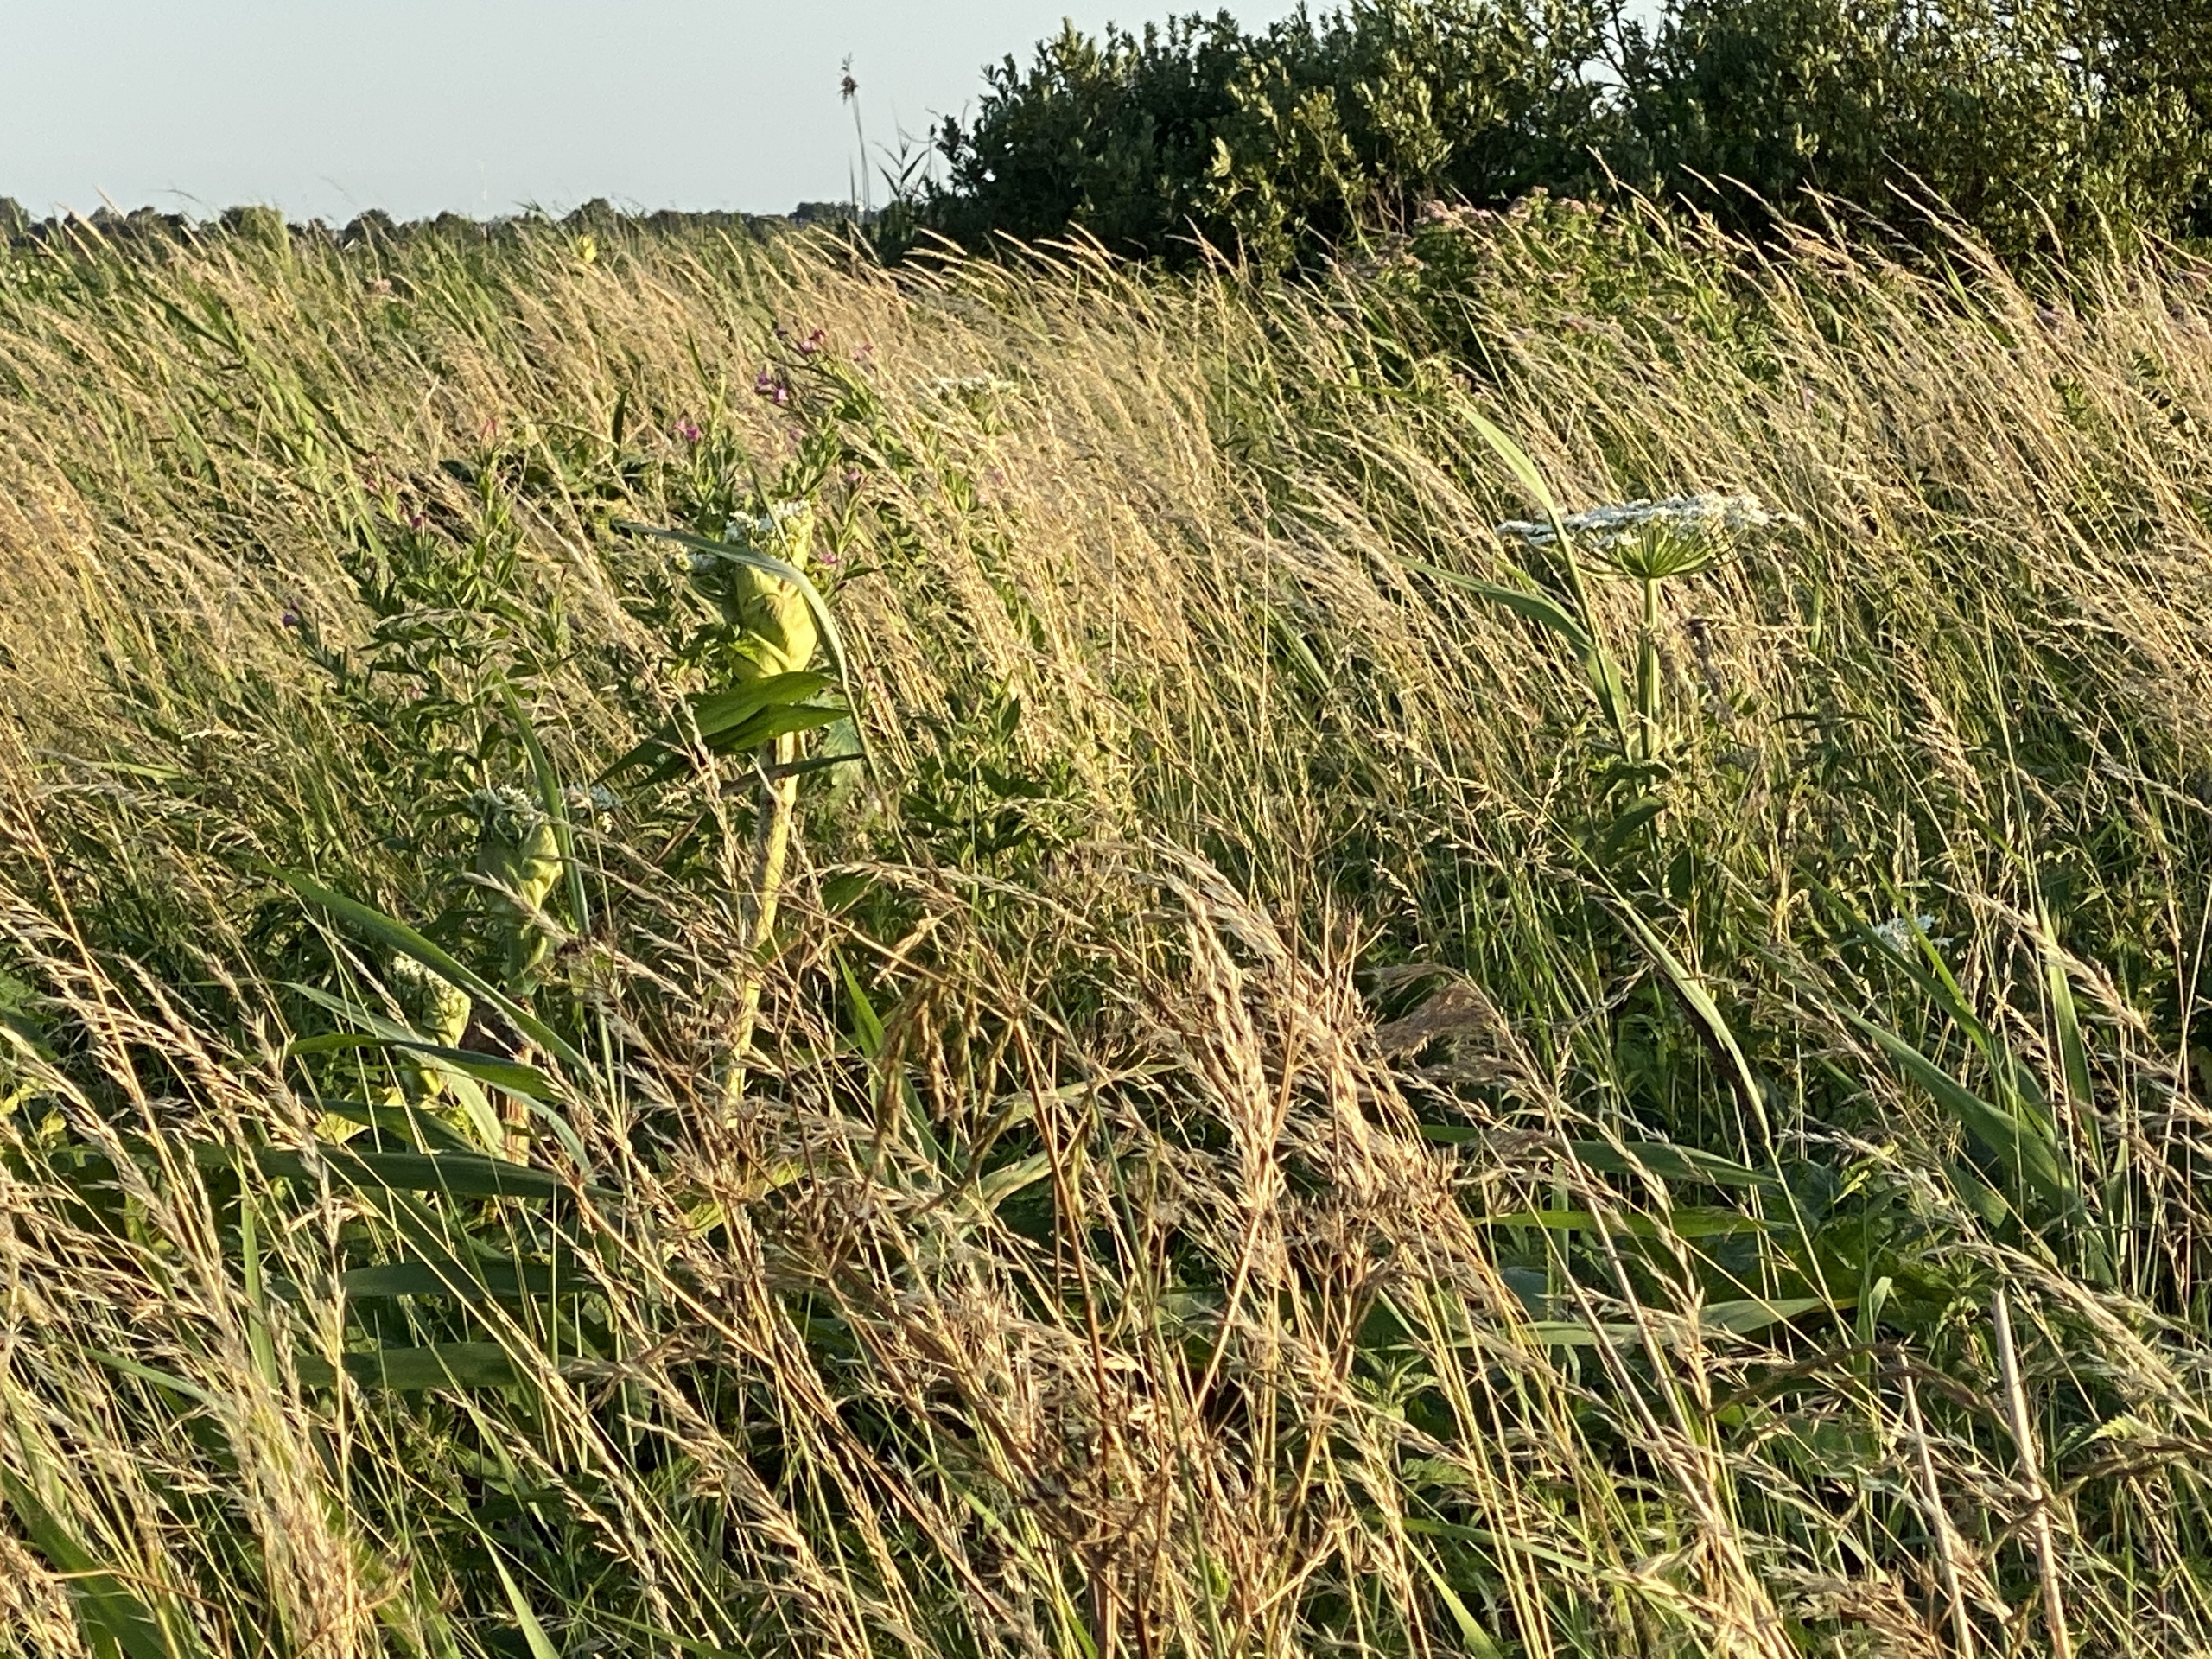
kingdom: Plantae
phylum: Tracheophyta
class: Magnoliopsida
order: Apiales
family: Apiaceae
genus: Heracleum
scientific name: Heracleum mantegazzianum
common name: Kæmpe-bjørneklo
